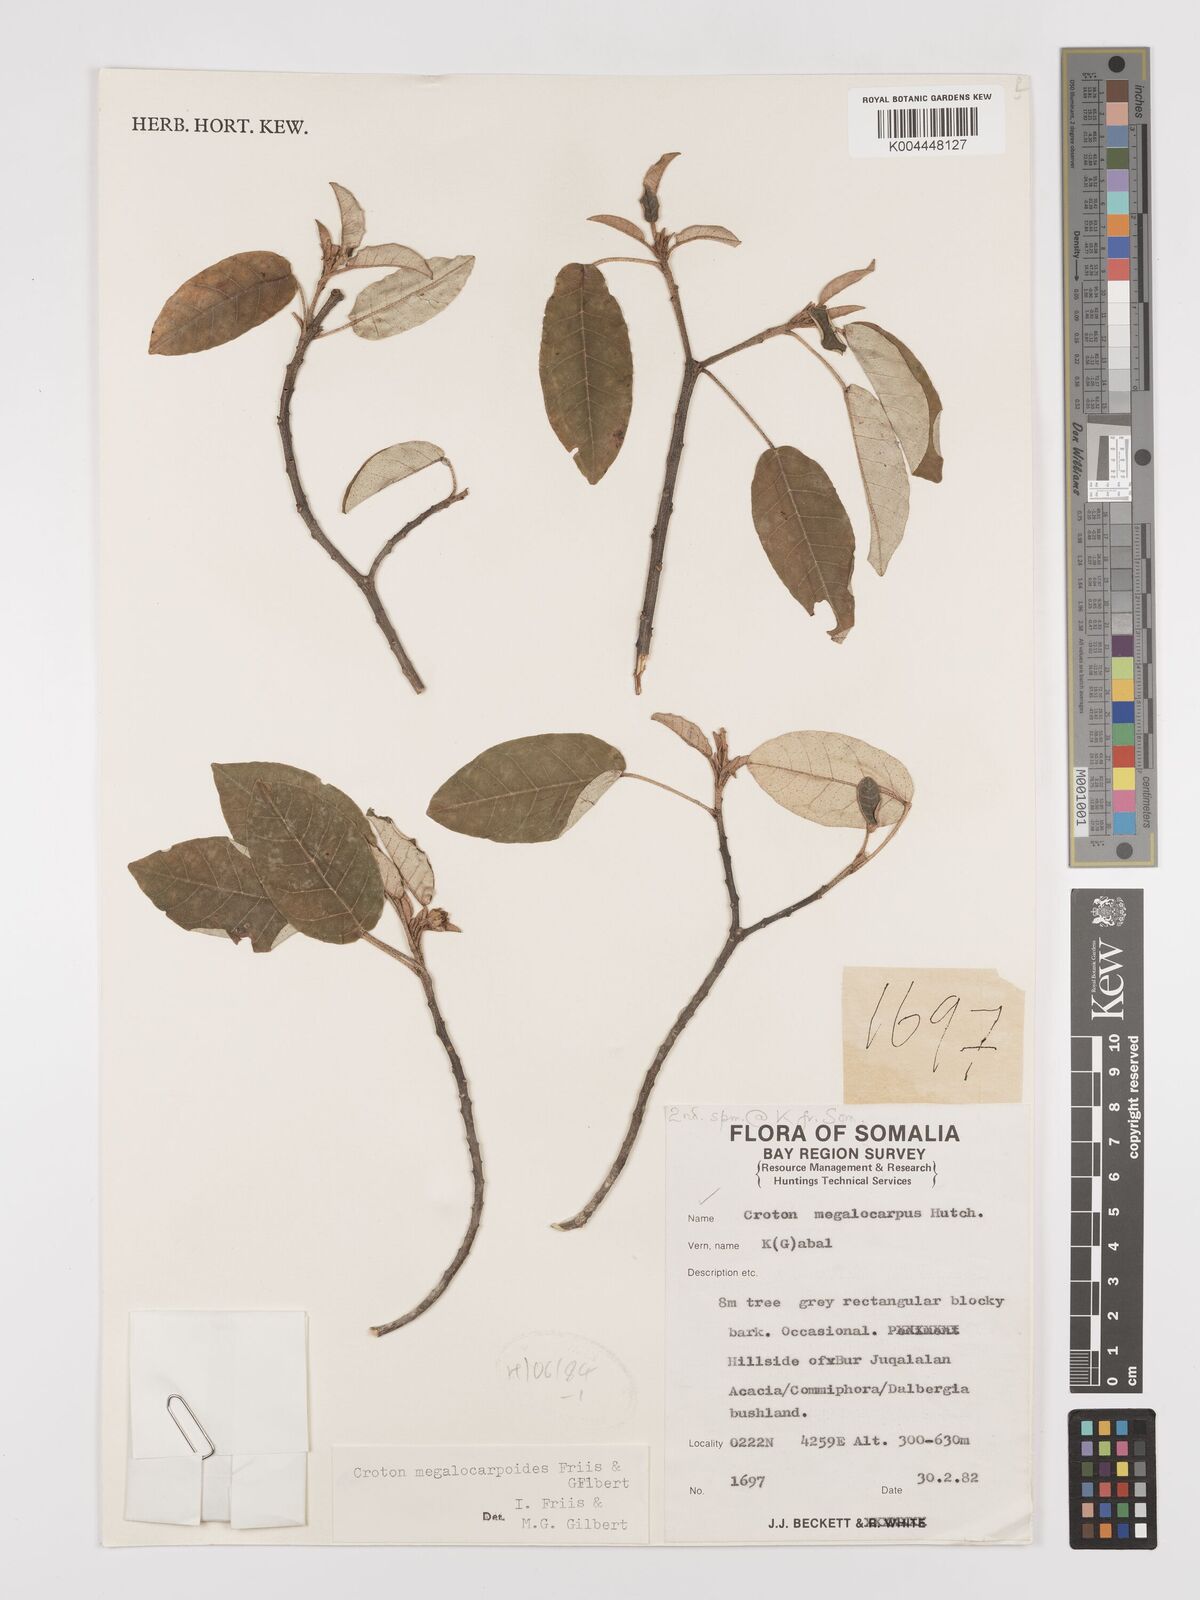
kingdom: Plantae
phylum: Tracheophyta
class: Magnoliopsida
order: Malpighiales
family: Euphorbiaceae
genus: Croton
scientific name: Croton megalocarpoides
